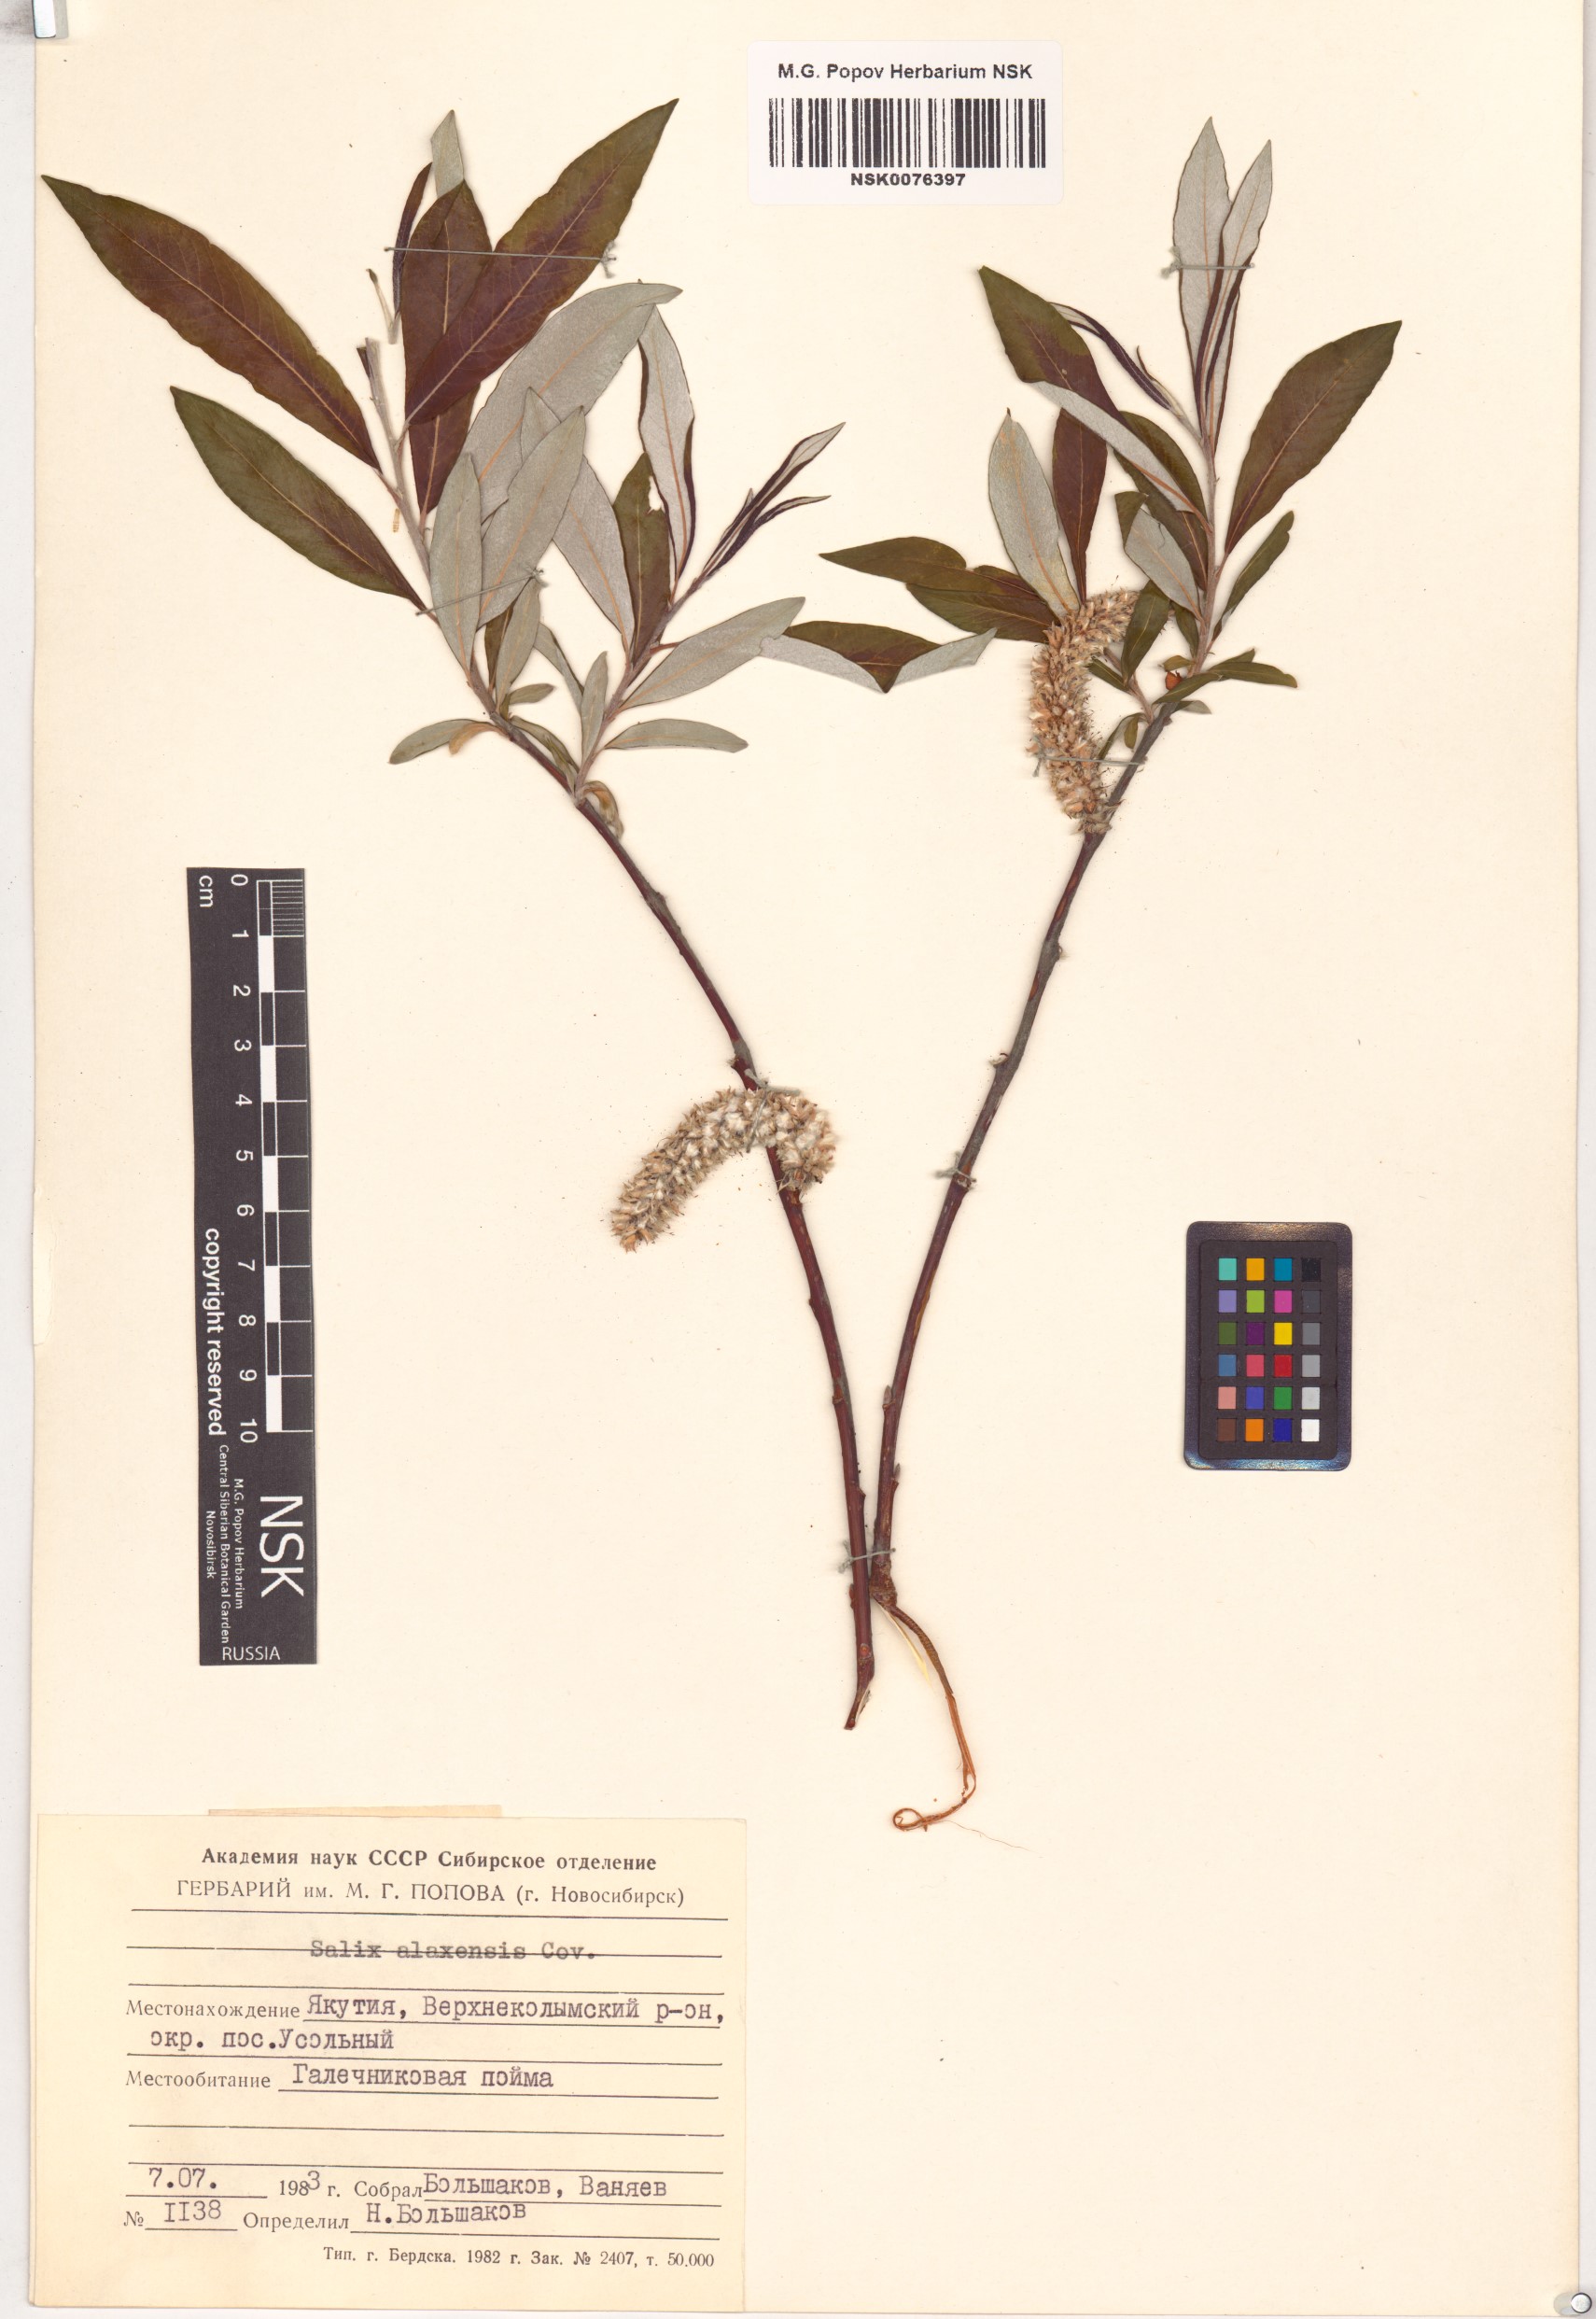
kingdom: Plantae
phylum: Tracheophyta
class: Magnoliopsida
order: Malpighiales
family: Salicaceae
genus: Salix
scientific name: Salix alaxensis
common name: Feltleaf willow
